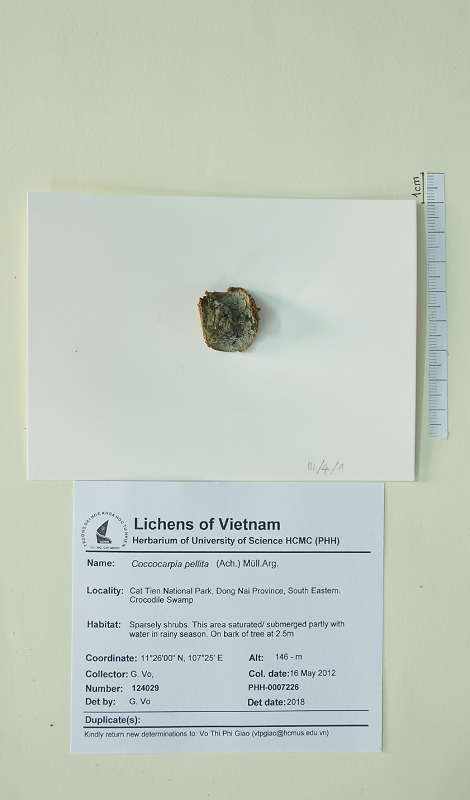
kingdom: Fungi
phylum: Ascomycota
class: Lecanoromycetes
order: Peltigerales
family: Coccocarpiaceae
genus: Coccocarpia
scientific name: Coccocarpia pellita
